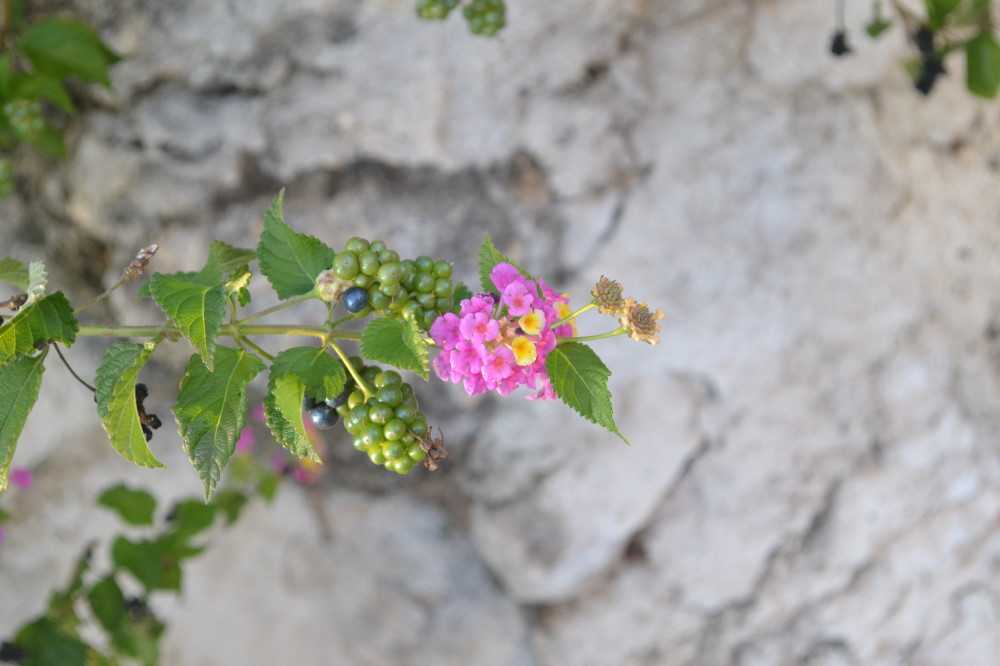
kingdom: Plantae
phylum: Tracheophyta
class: Magnoliopsida
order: Lamiales
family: Verbenaceae
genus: Lantana
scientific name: Lantana camara
